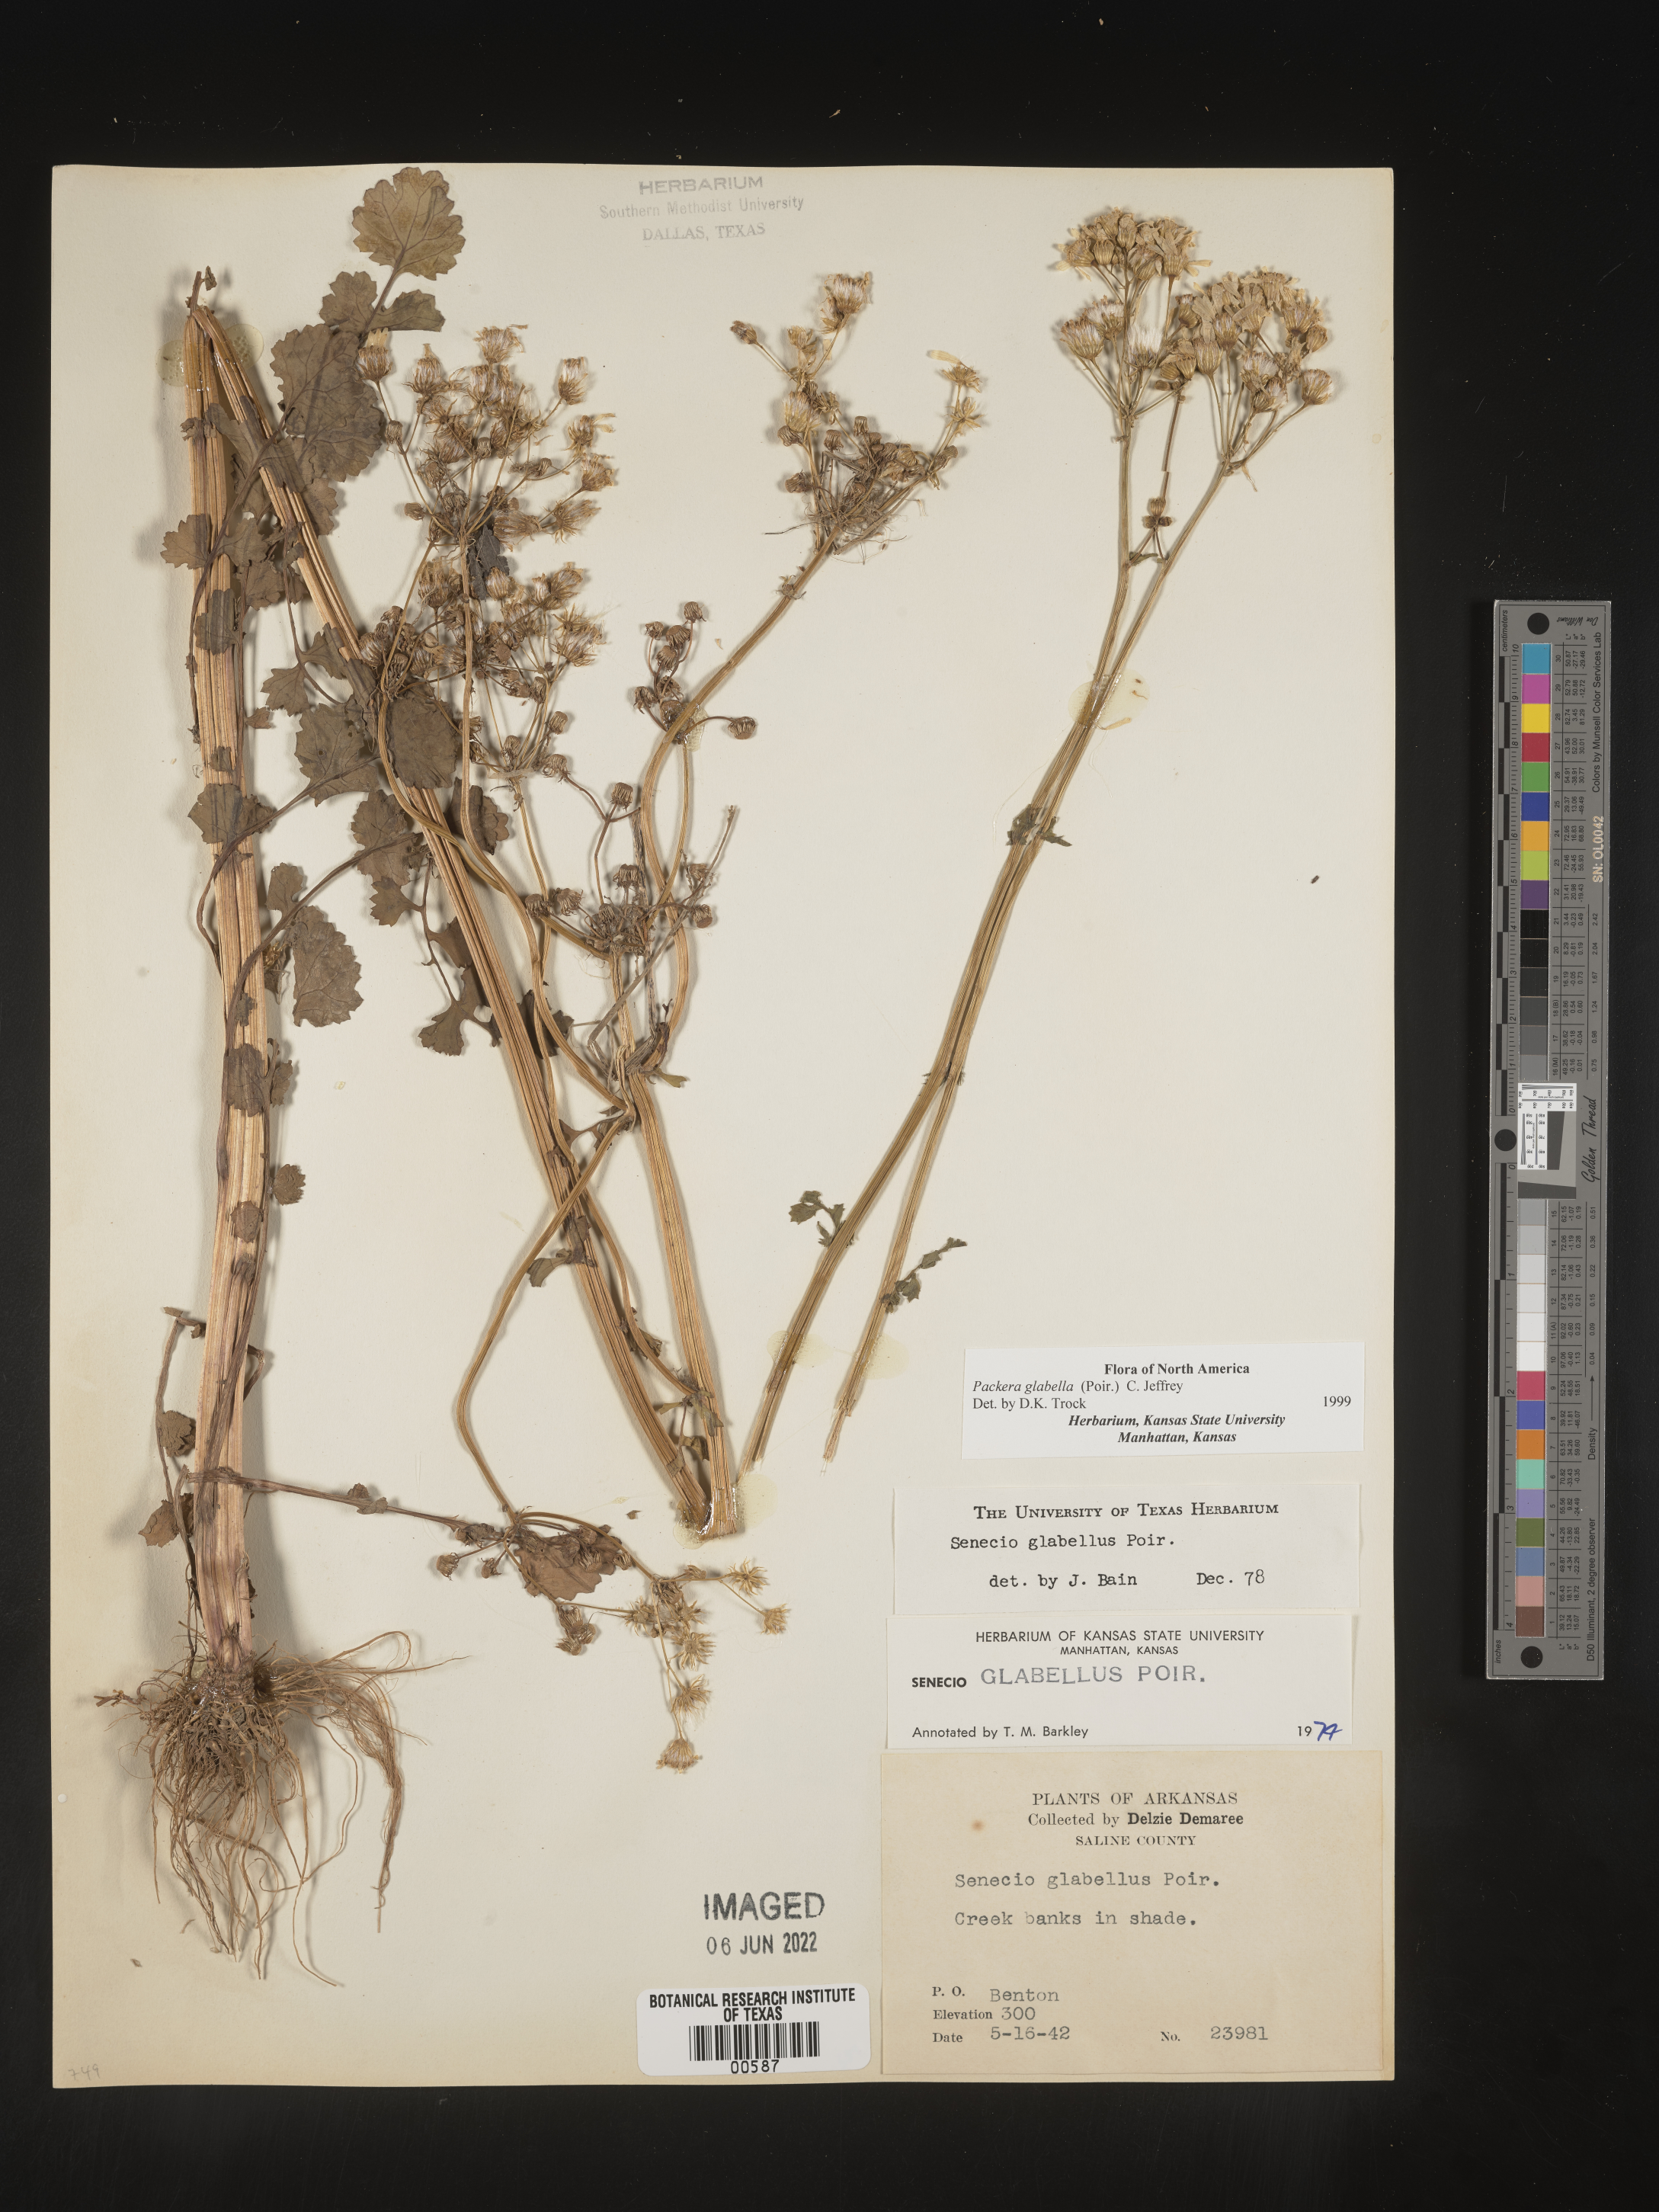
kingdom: Plantae
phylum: Tracheophyta
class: Magnoliopsida
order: Asterales
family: Asteraceae
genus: Packera
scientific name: Packera glabella
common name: Butterweed
